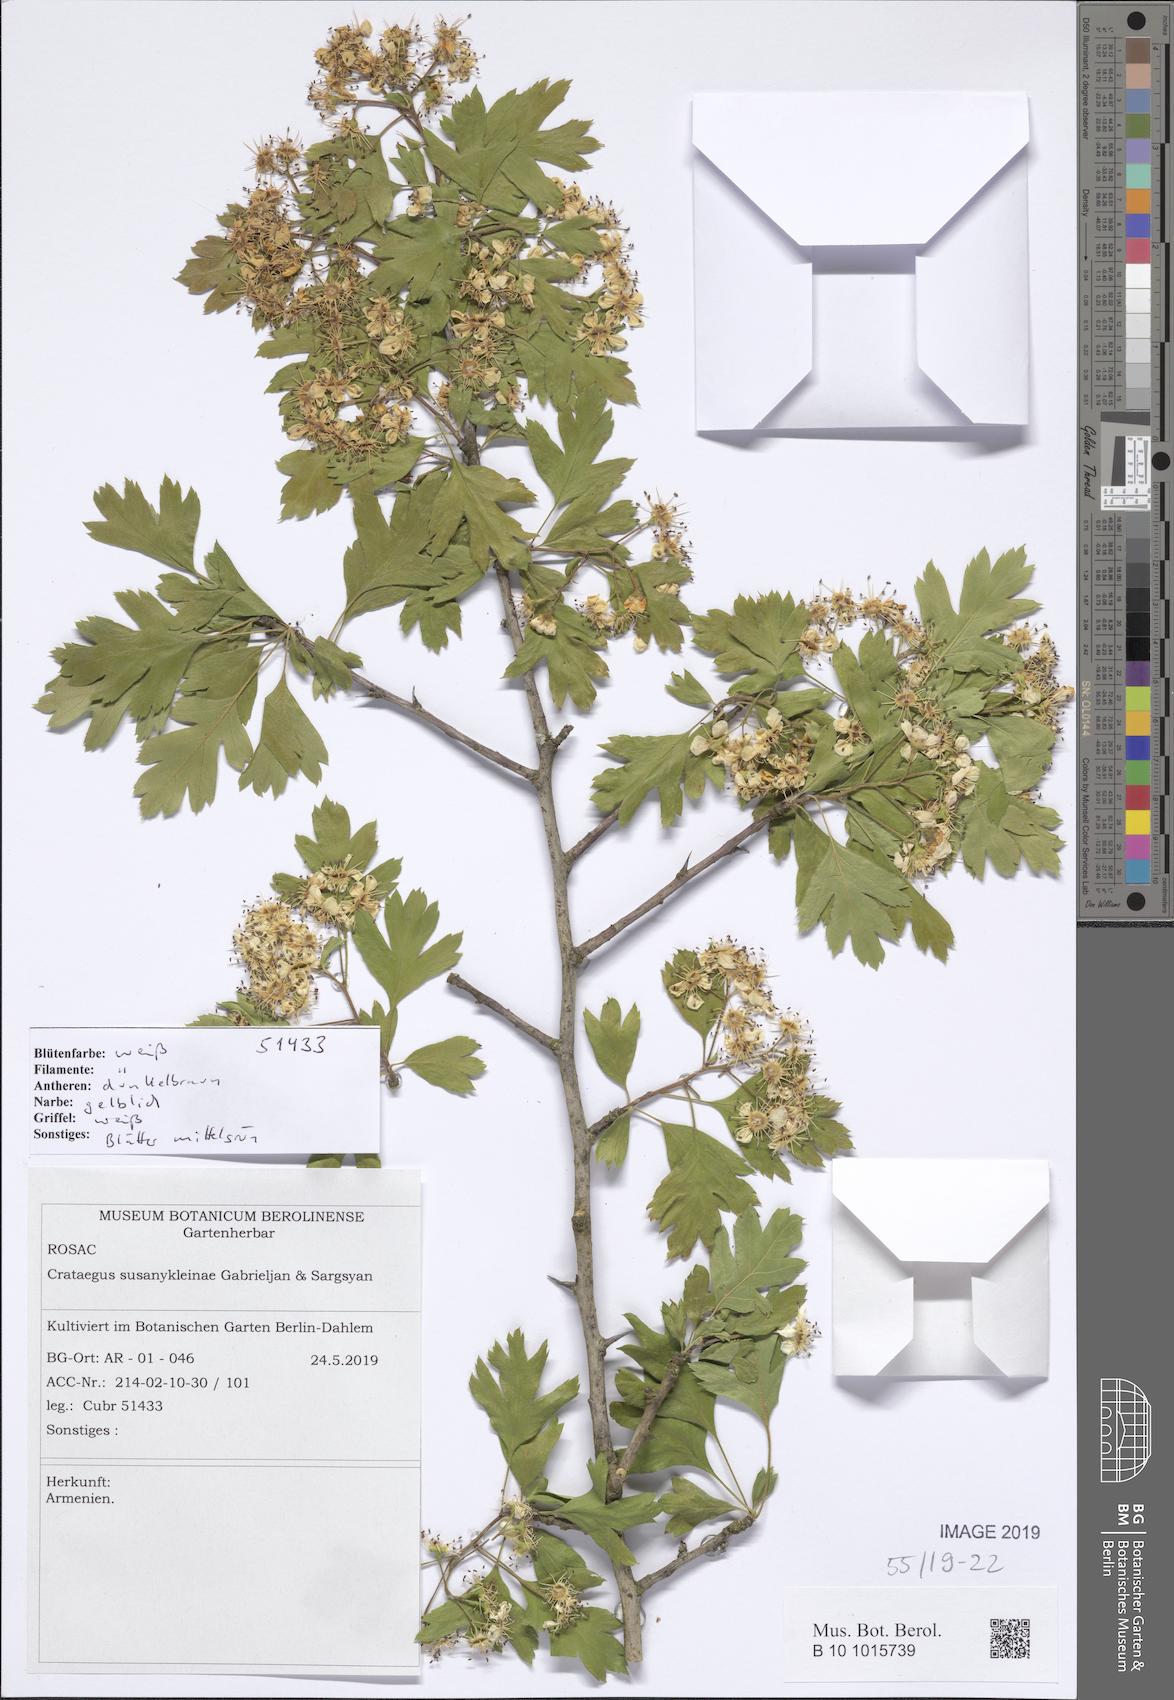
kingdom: Plantae
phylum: Tracheophyta
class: Magnoliopsida
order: Rosales
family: Rosaceae
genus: Crataegus
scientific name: Crataegus
